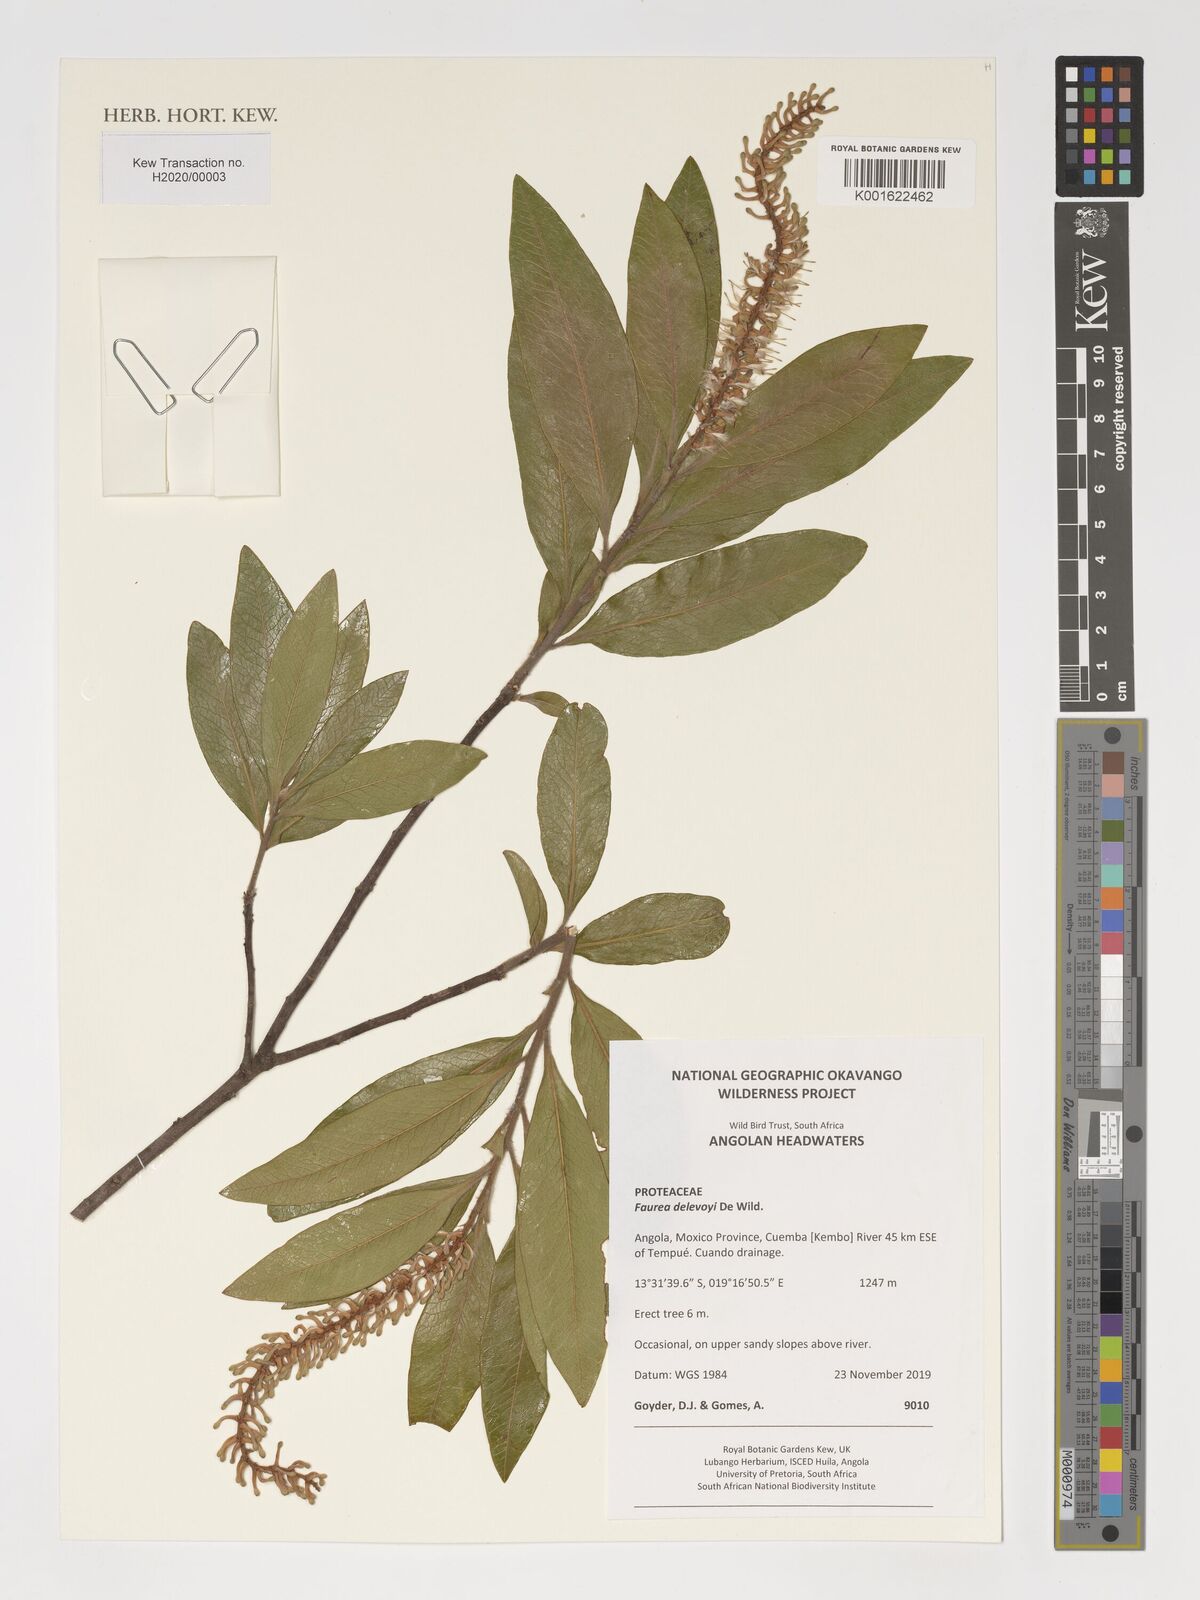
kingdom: Plantae
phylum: Tracheophyta
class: Magnoliopsida
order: Proteales
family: Proteaceae
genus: Faurea
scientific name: Faurea delevoyi
